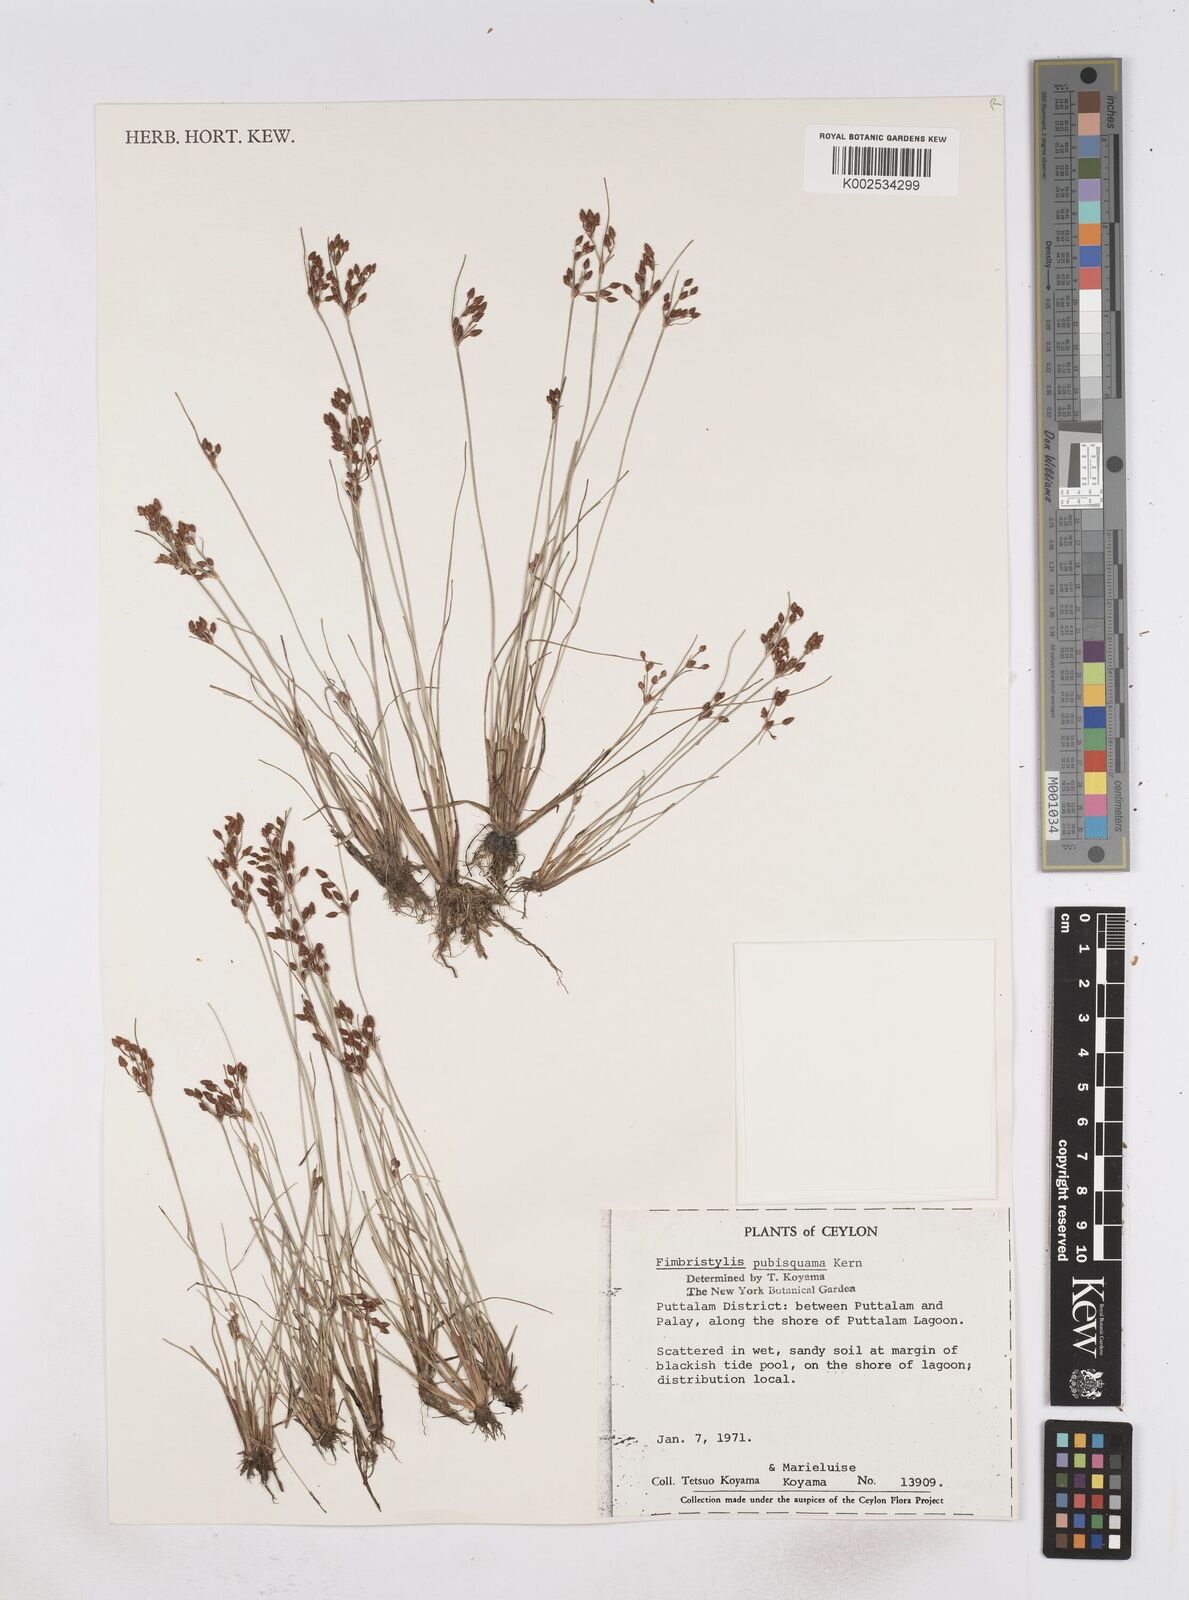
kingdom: Plantae
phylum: Tracheophyta
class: Liliopsida
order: Poales
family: Cyperaceae
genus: Fimbristylis
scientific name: Fimbristylis pubisquama
